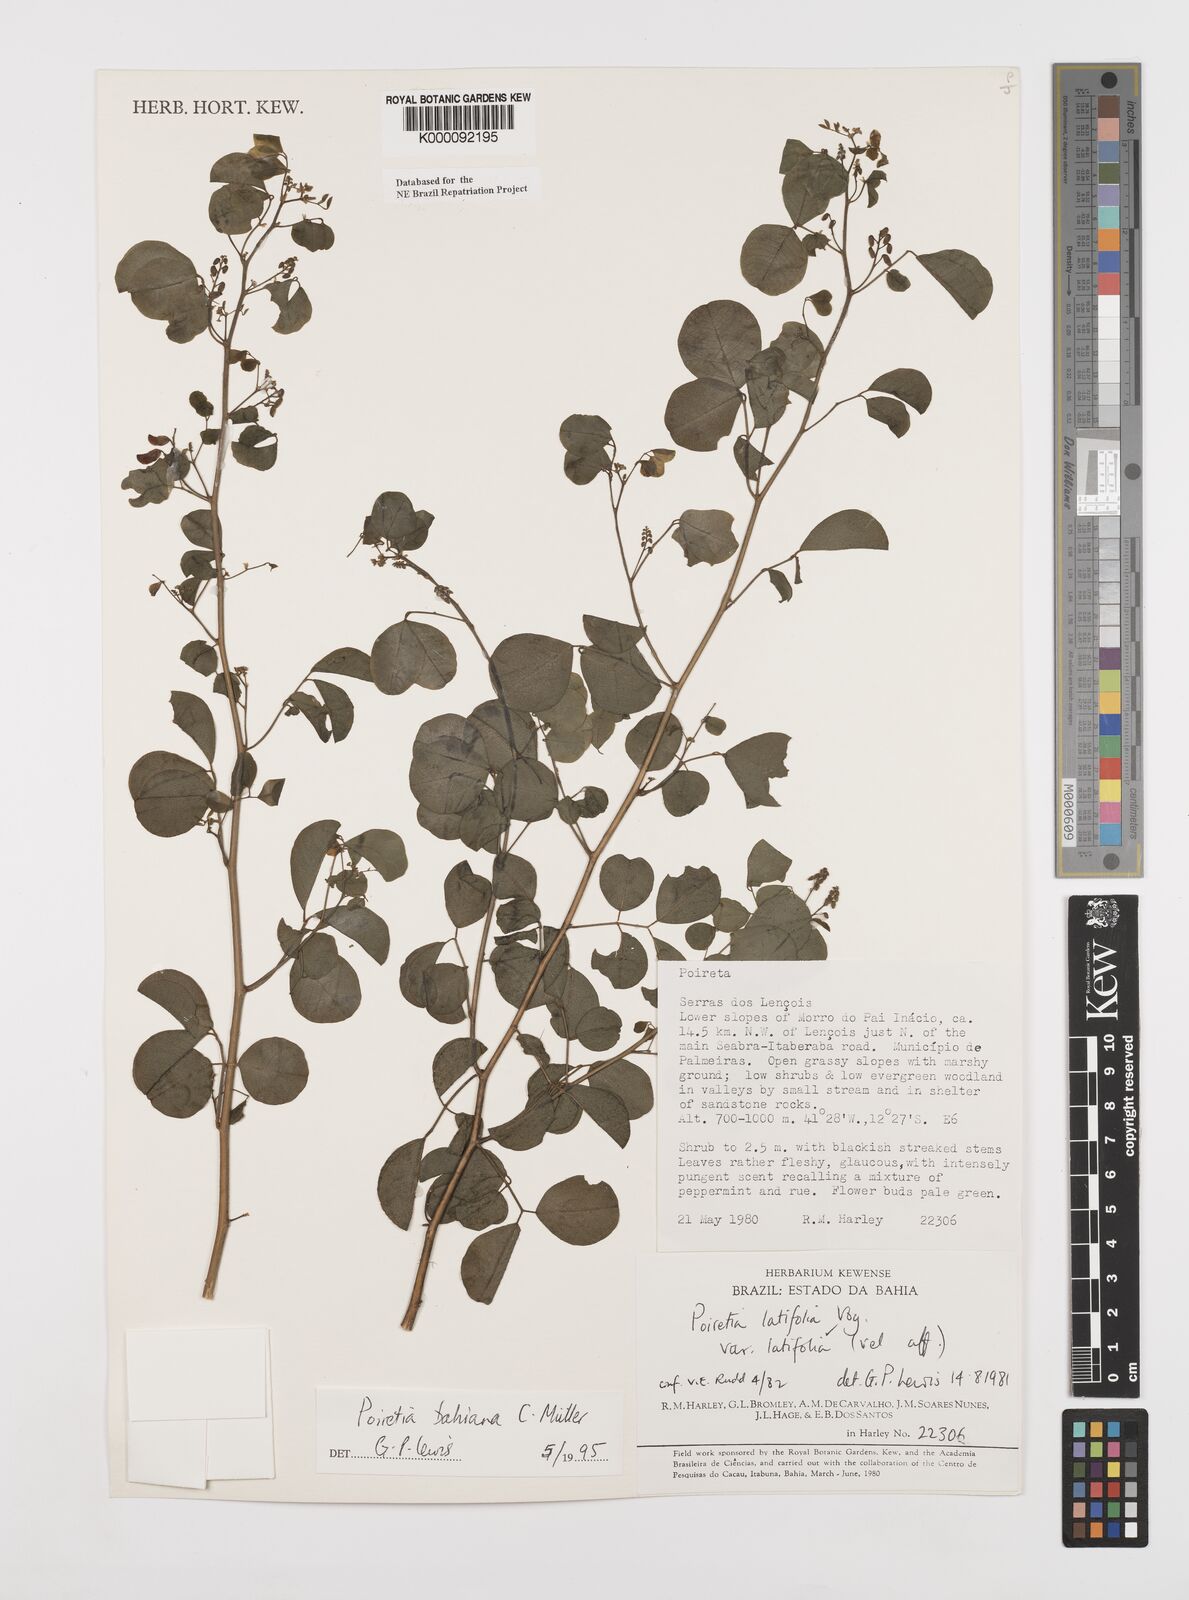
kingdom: Plantae
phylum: Tracheophyta
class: Magnoliopsida
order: Fabales
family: Fabaceae
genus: Poiretia
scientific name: Poiretia
